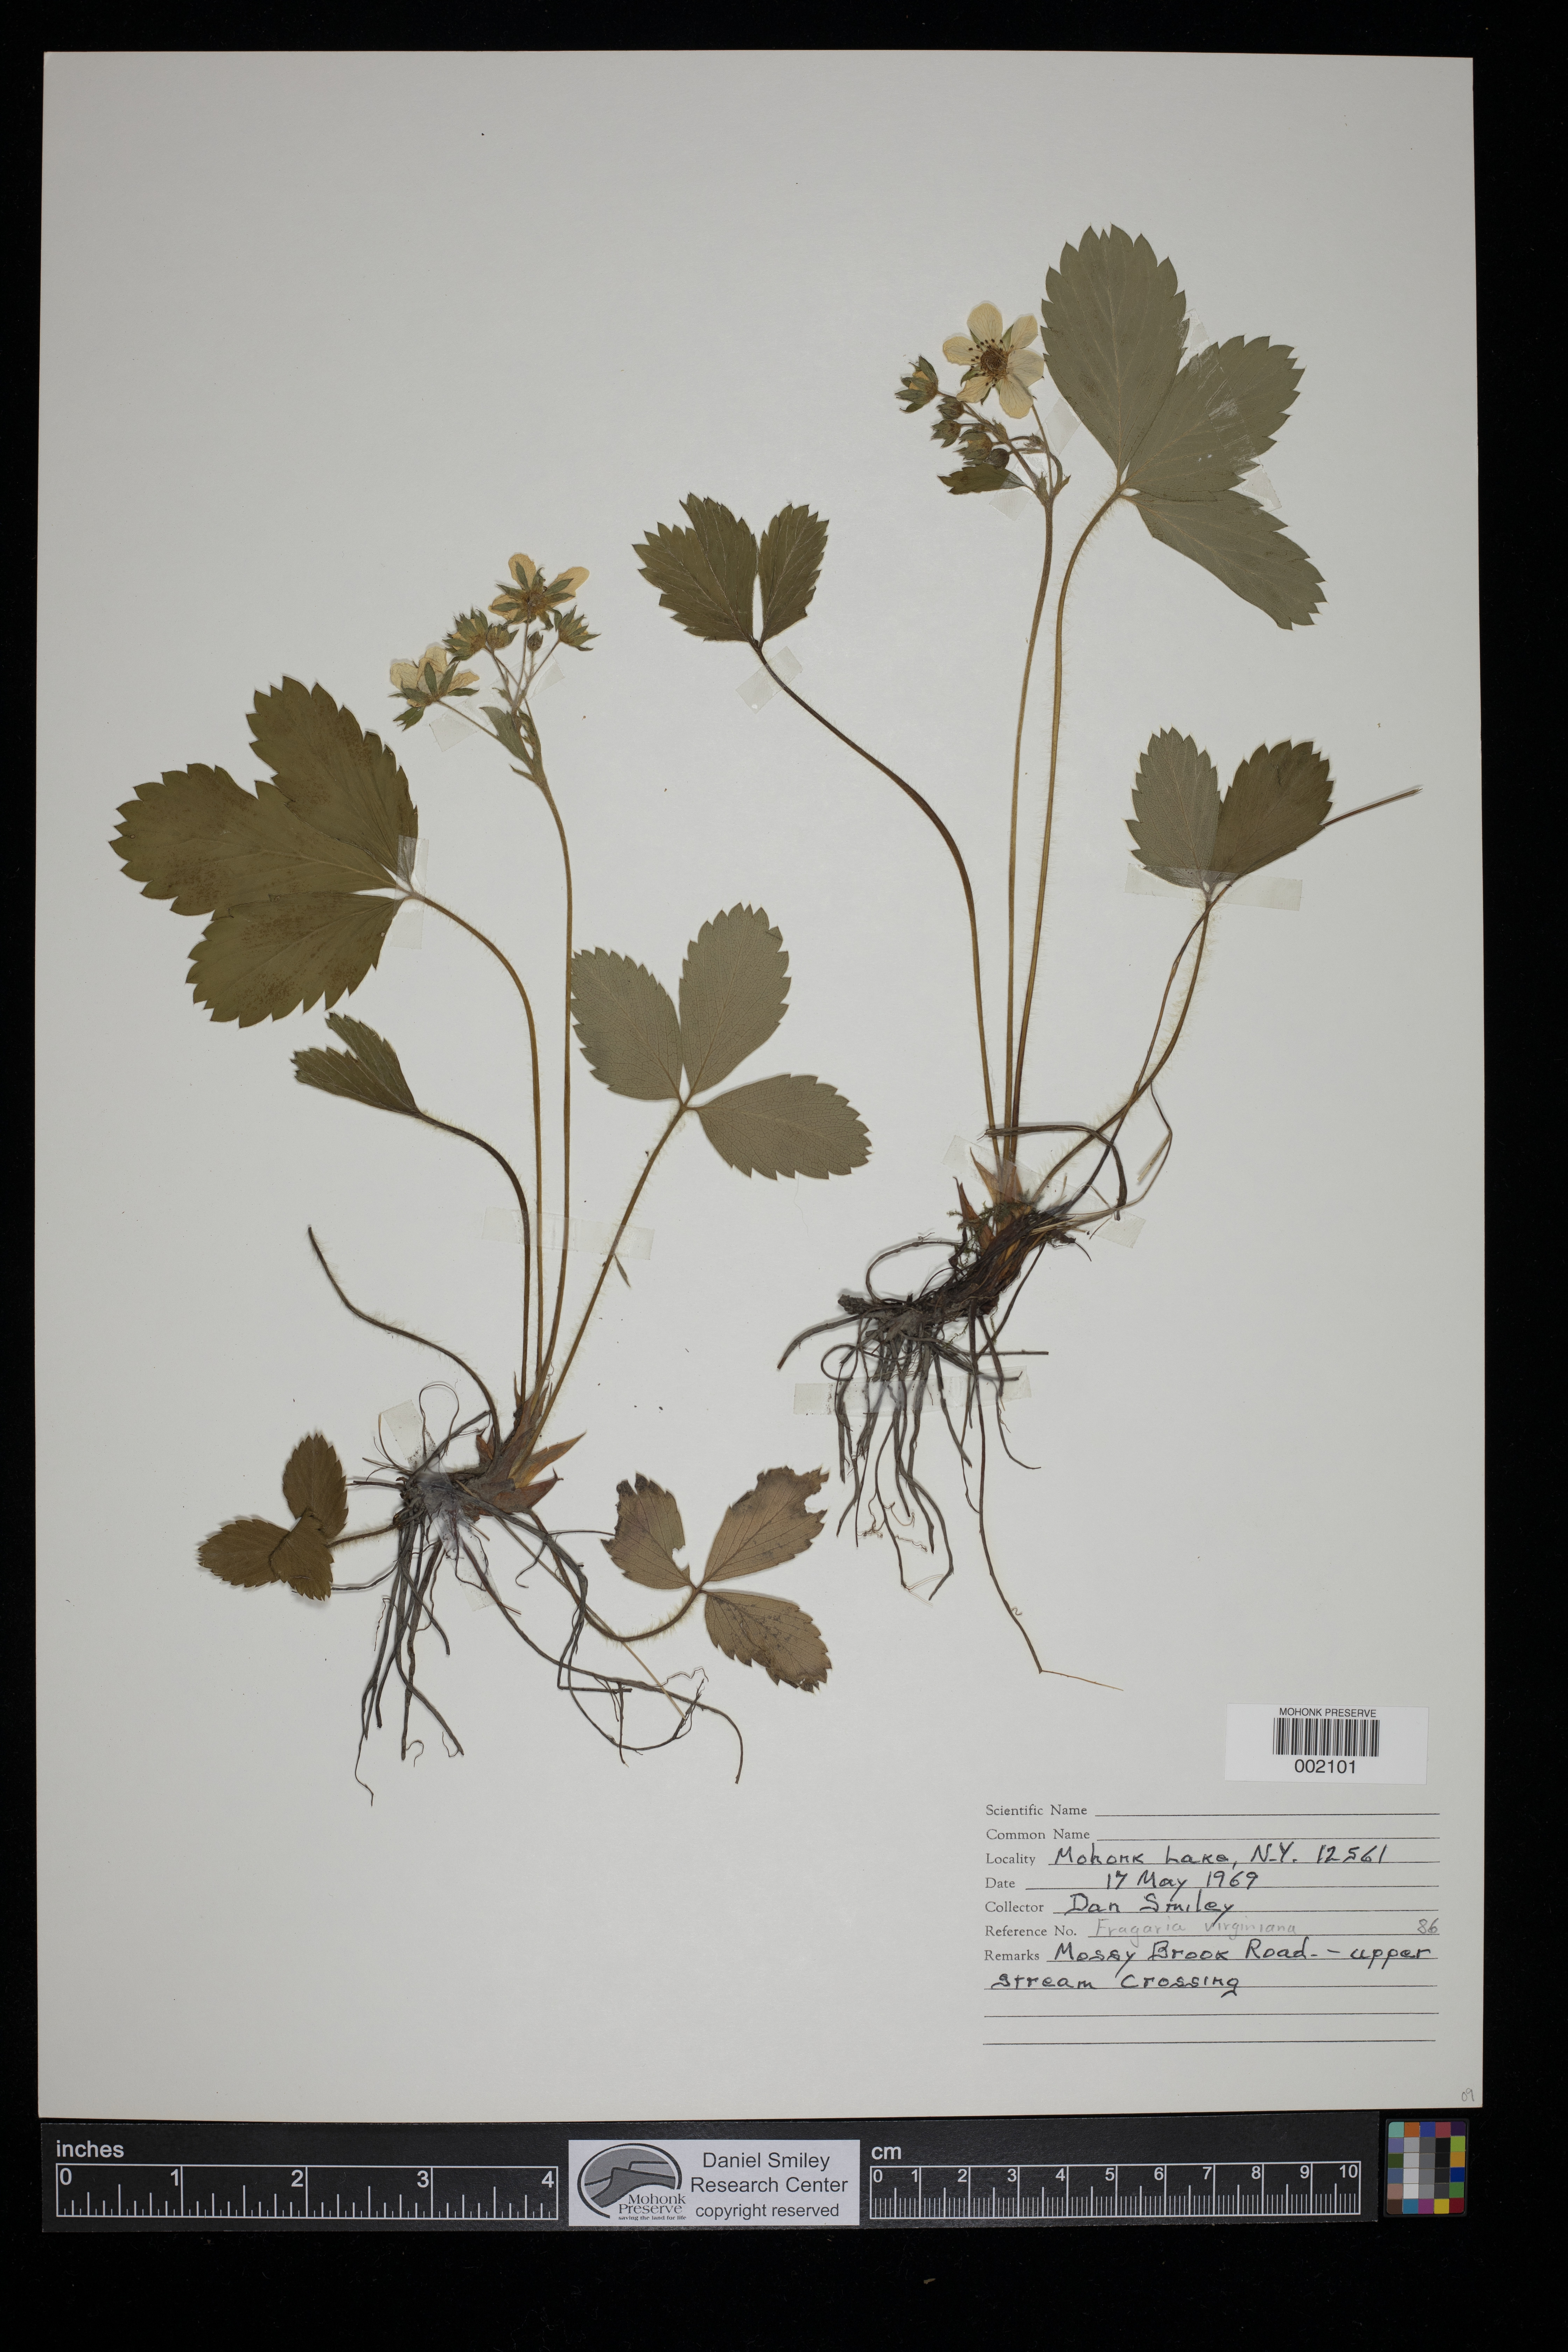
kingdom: Plantae
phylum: Tracheophyta
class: Magnoliopsida
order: Rosales
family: Rosaceae
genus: Fragaria
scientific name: Fragaria virginiana
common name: Thickleaved wild strawberry
